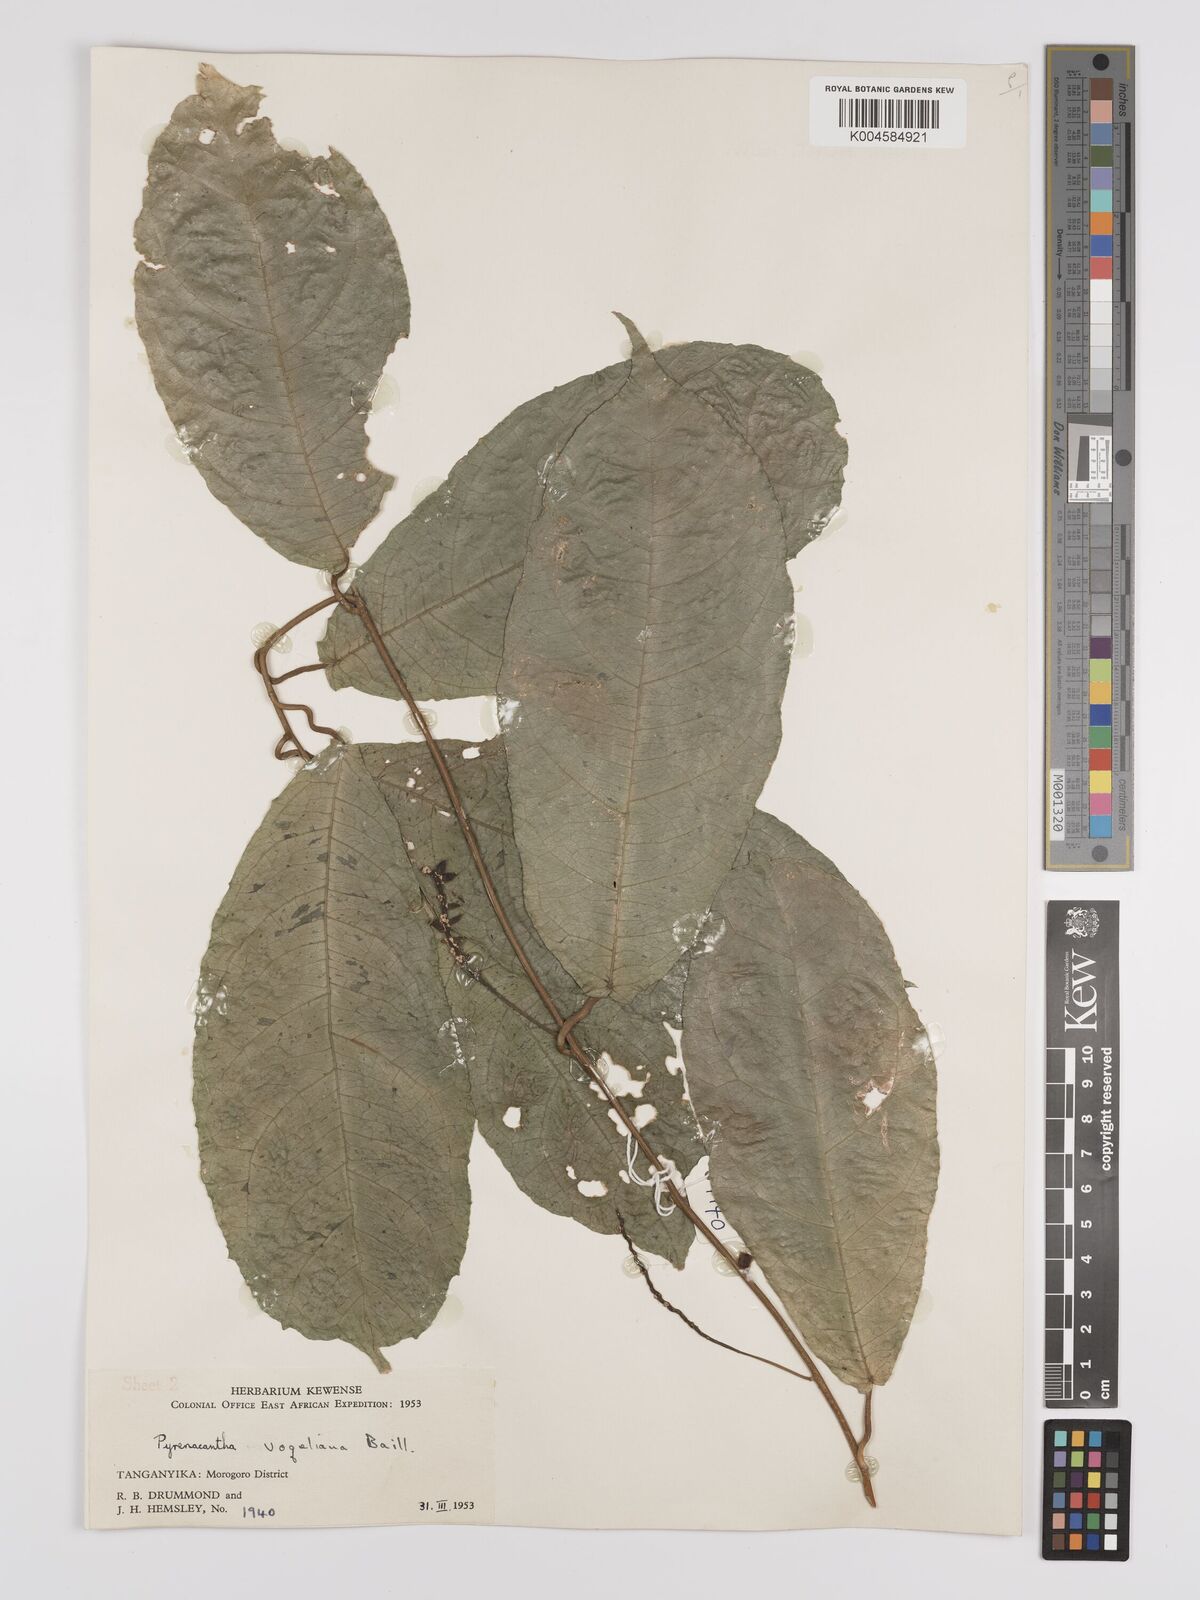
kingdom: Plantae
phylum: Tracheophyta
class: Magnoliopsida
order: Icacinales
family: Icacinaceae
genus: Pyrenacantha
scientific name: Pyrenacantha vogeliana
